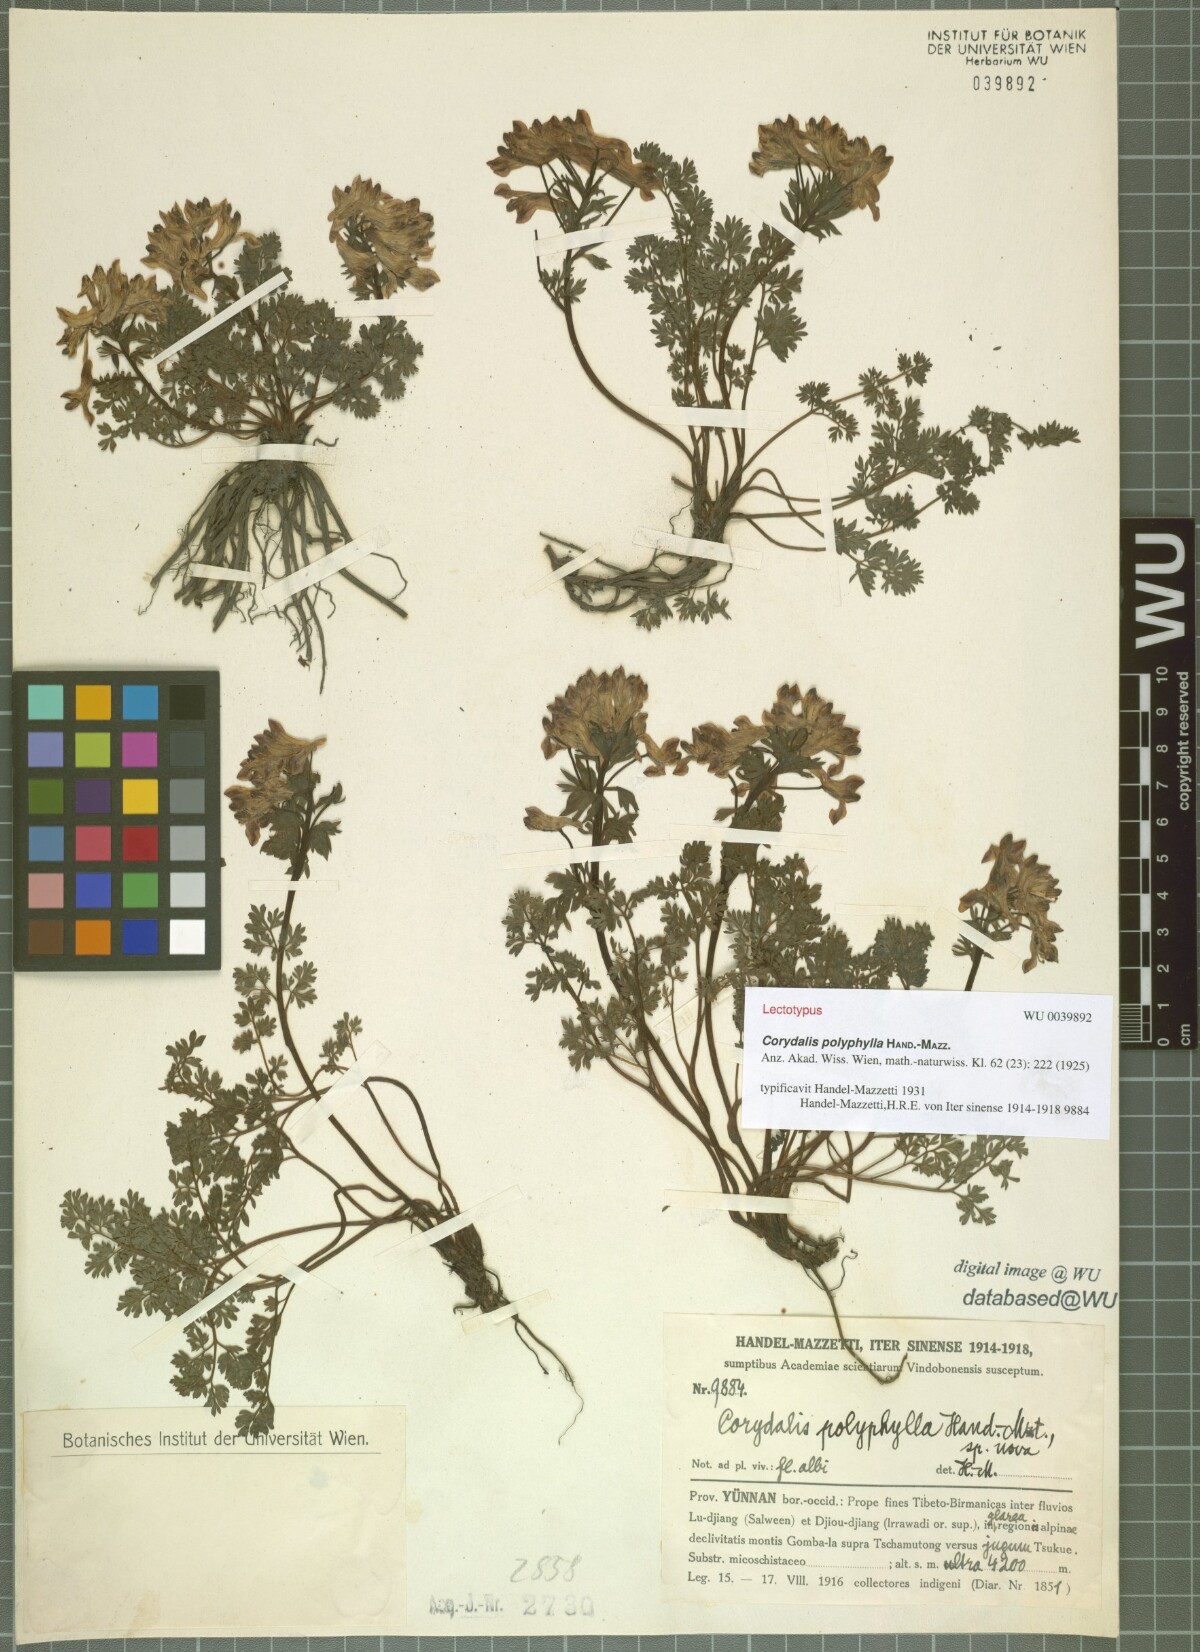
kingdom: Plantae
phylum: Tracheophyta
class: Magnoliopsida
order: Ranunculales
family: Papaveraceae
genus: Corydalis
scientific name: Corydalis polyphylla
